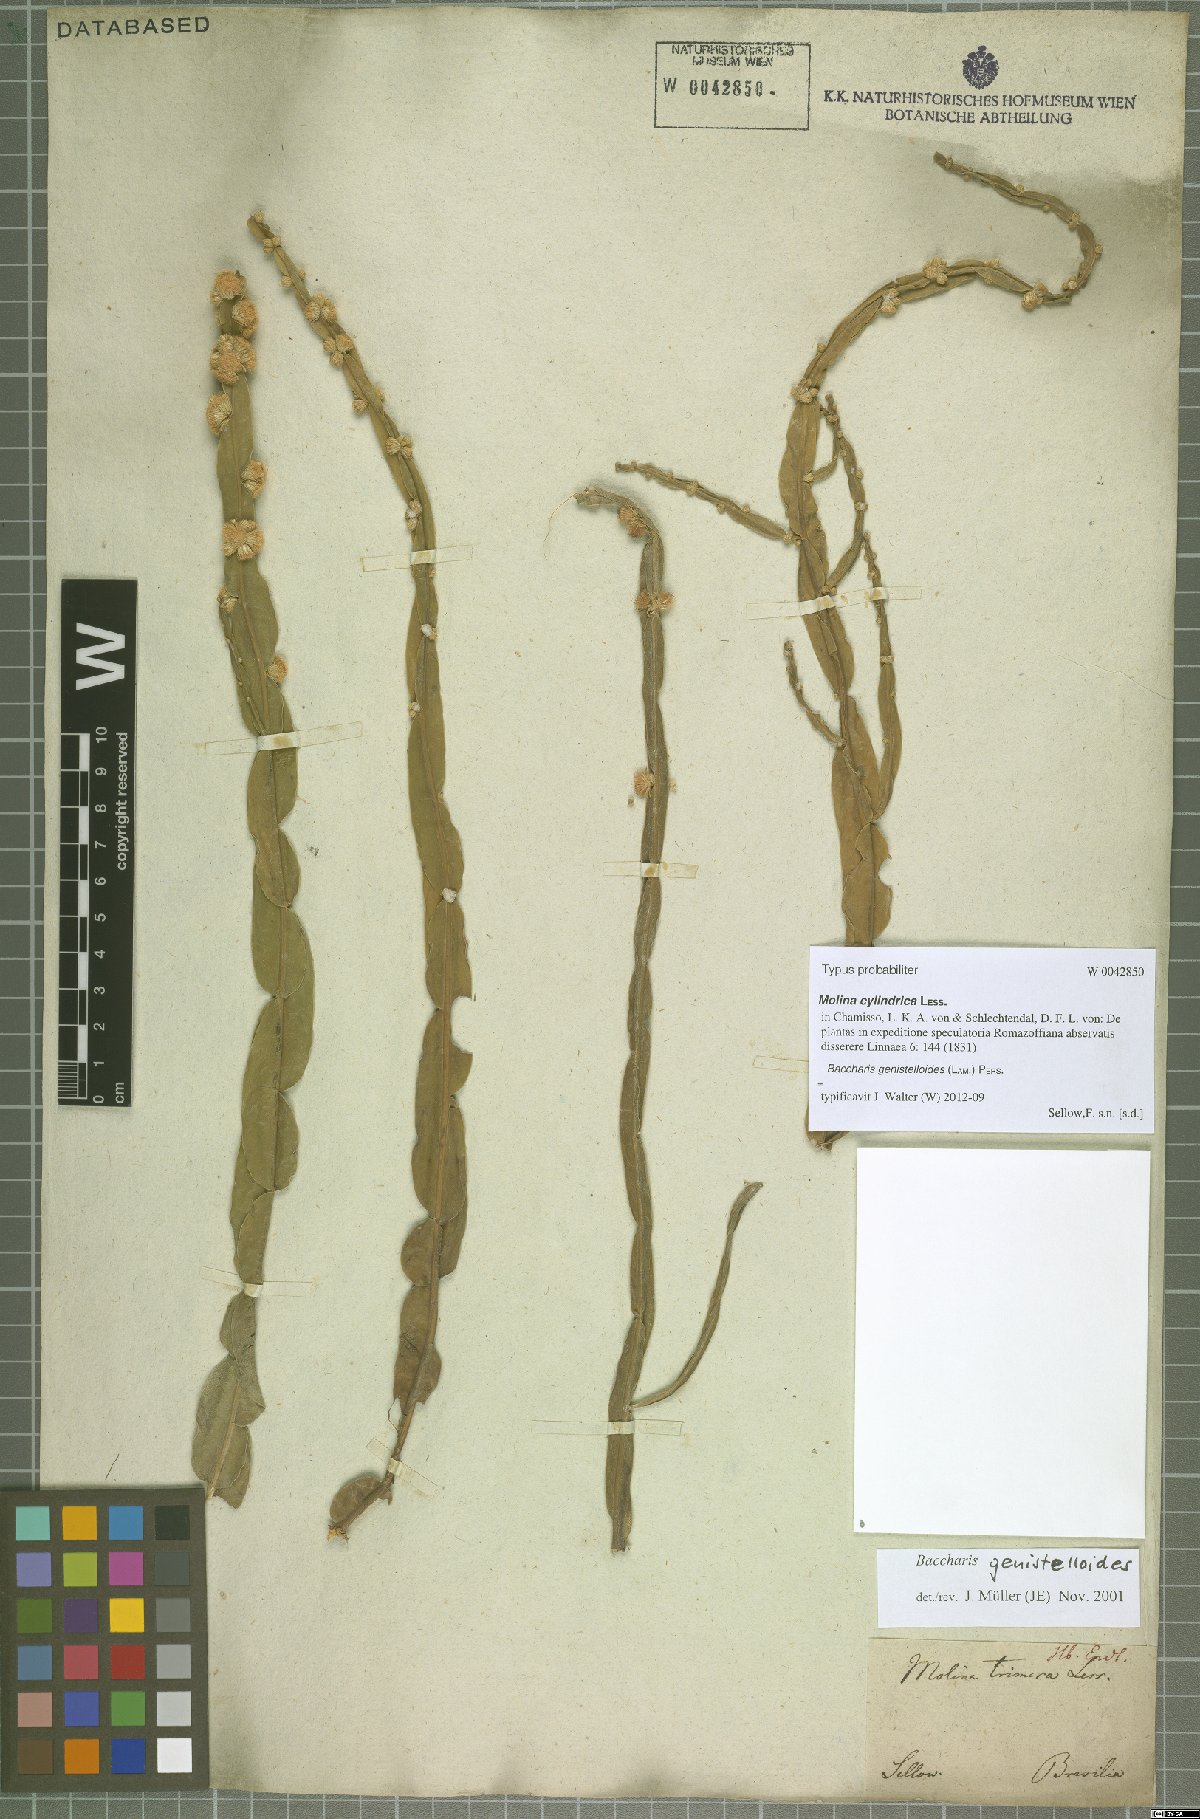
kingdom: Plantae
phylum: Tracheophyta
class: Magnoliopsida
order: Asterales
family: Asteraceae
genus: Baccharis
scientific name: Baccharis genistelloides
